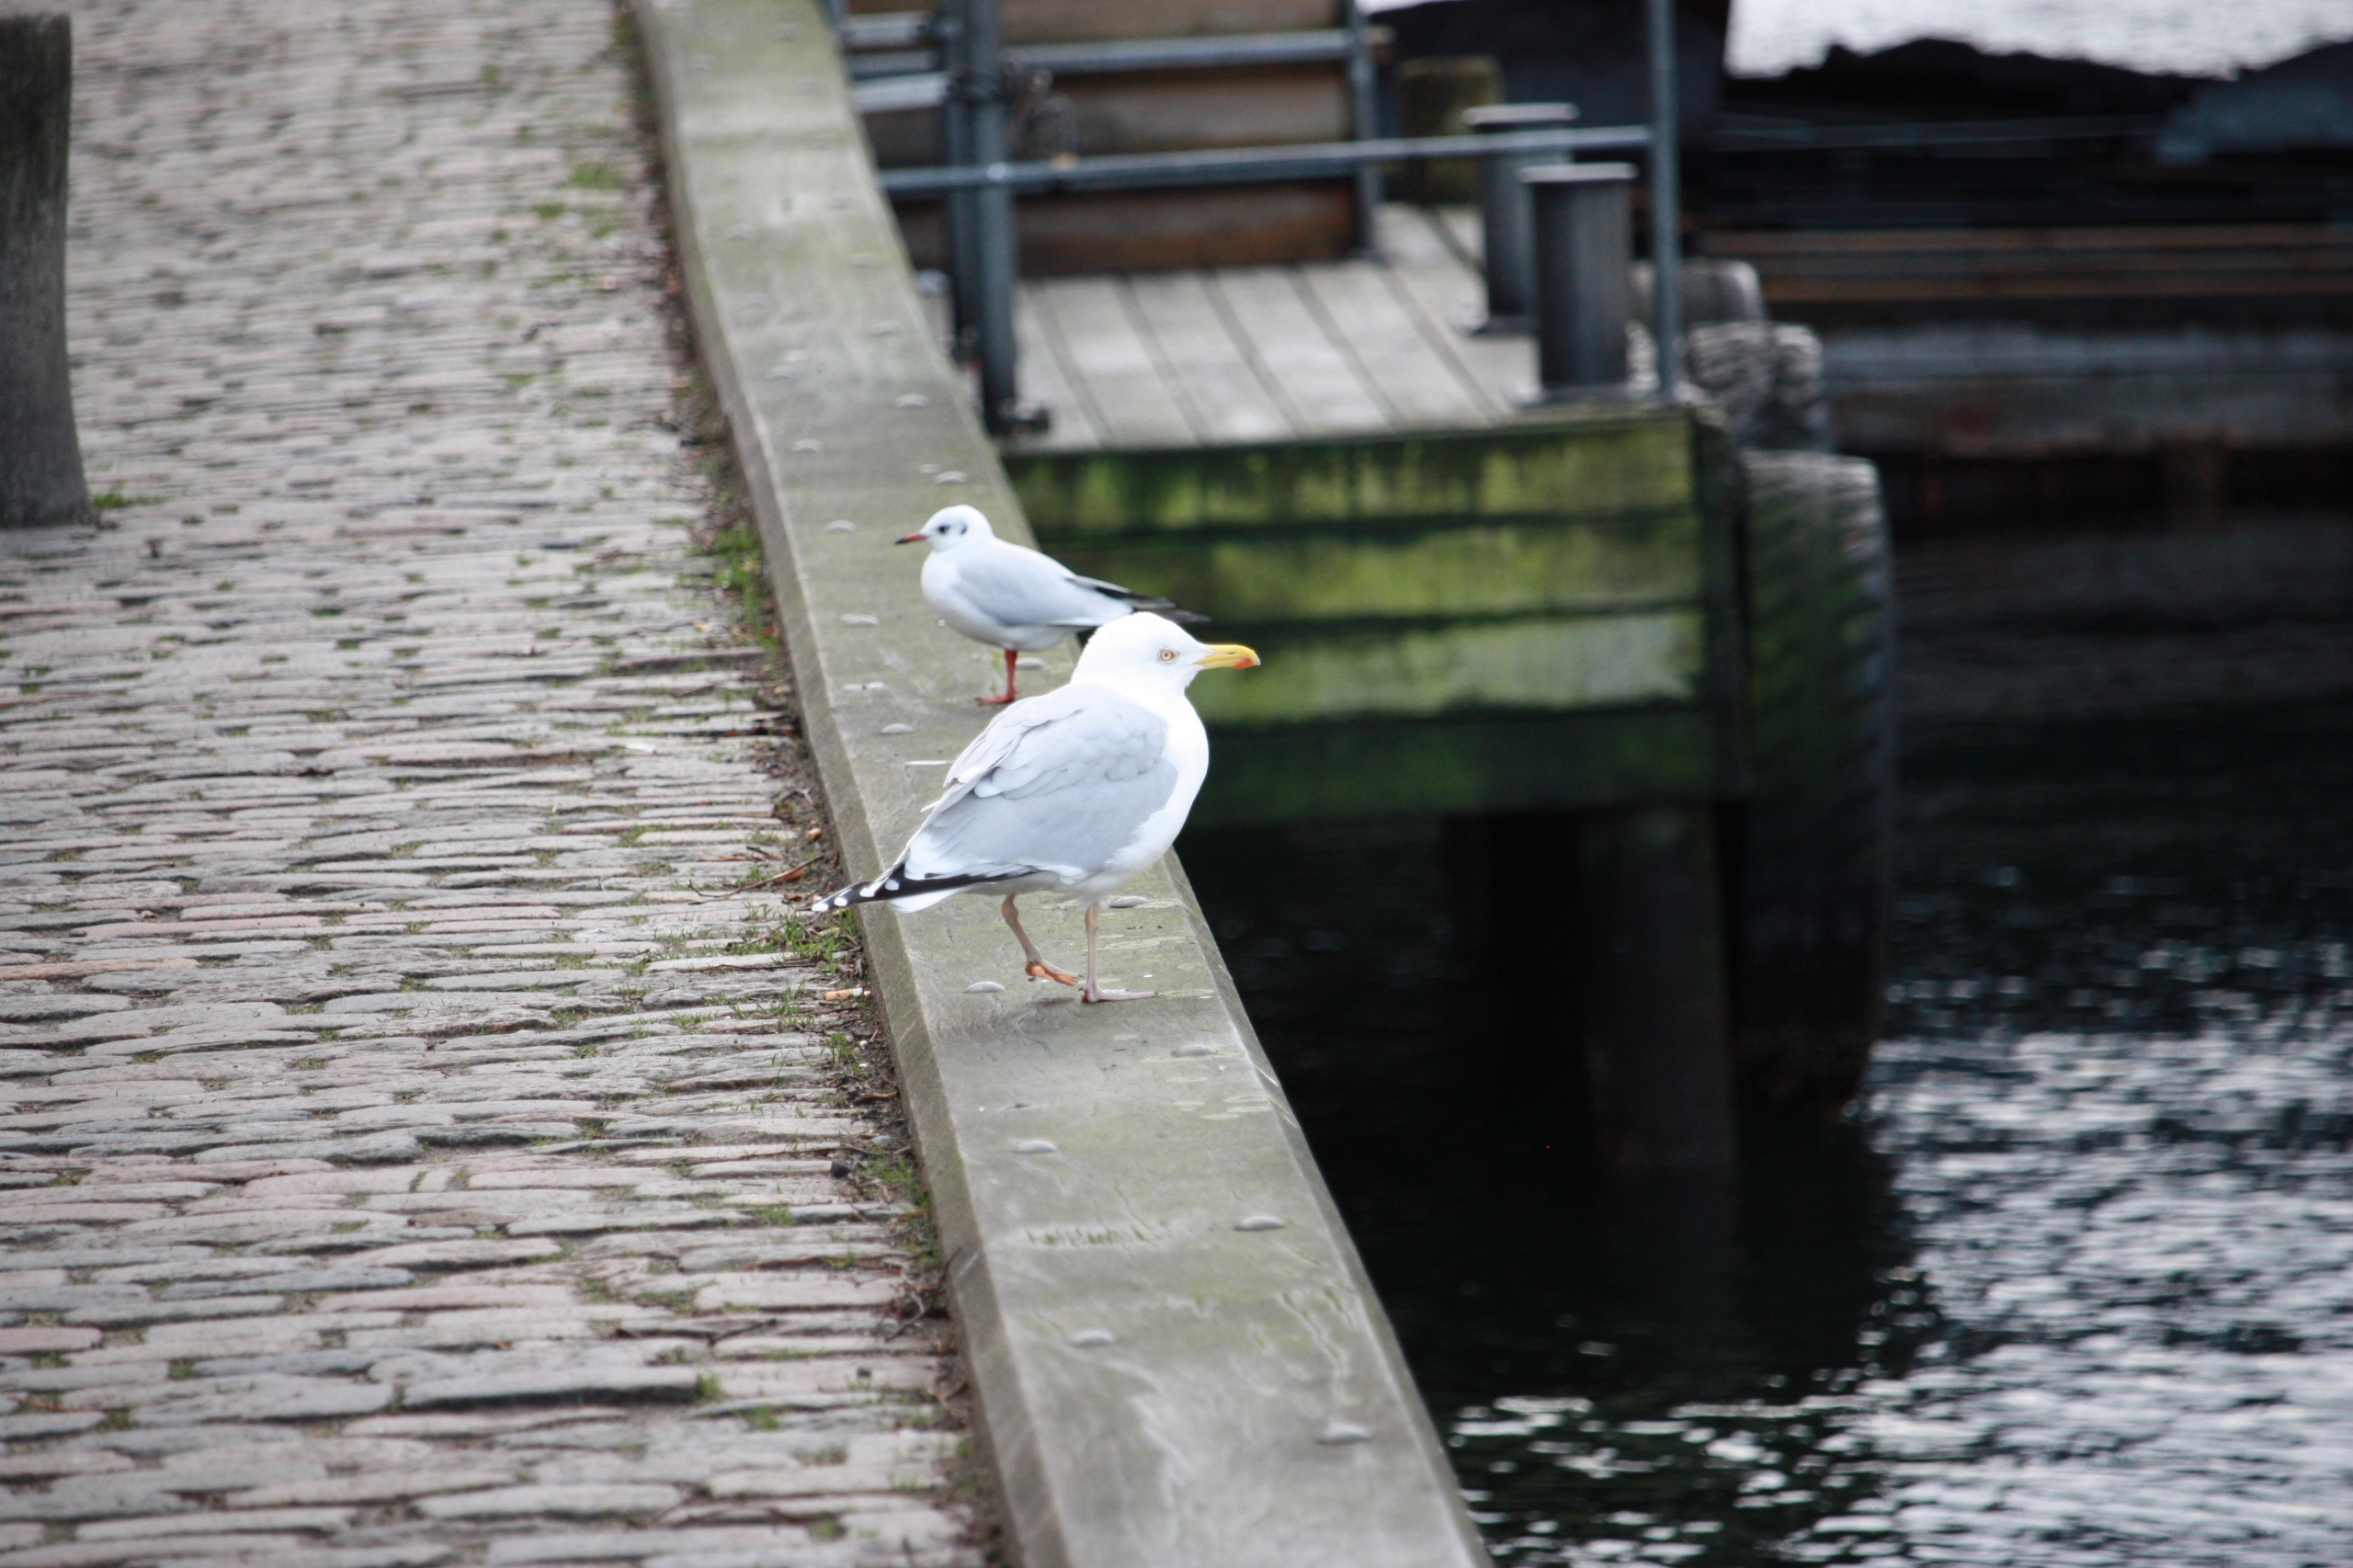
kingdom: Animalia
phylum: Chordata
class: Aves
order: Charadriiformes
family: Laridae
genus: Larus
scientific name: Larus argentatus
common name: Sølvmåge
